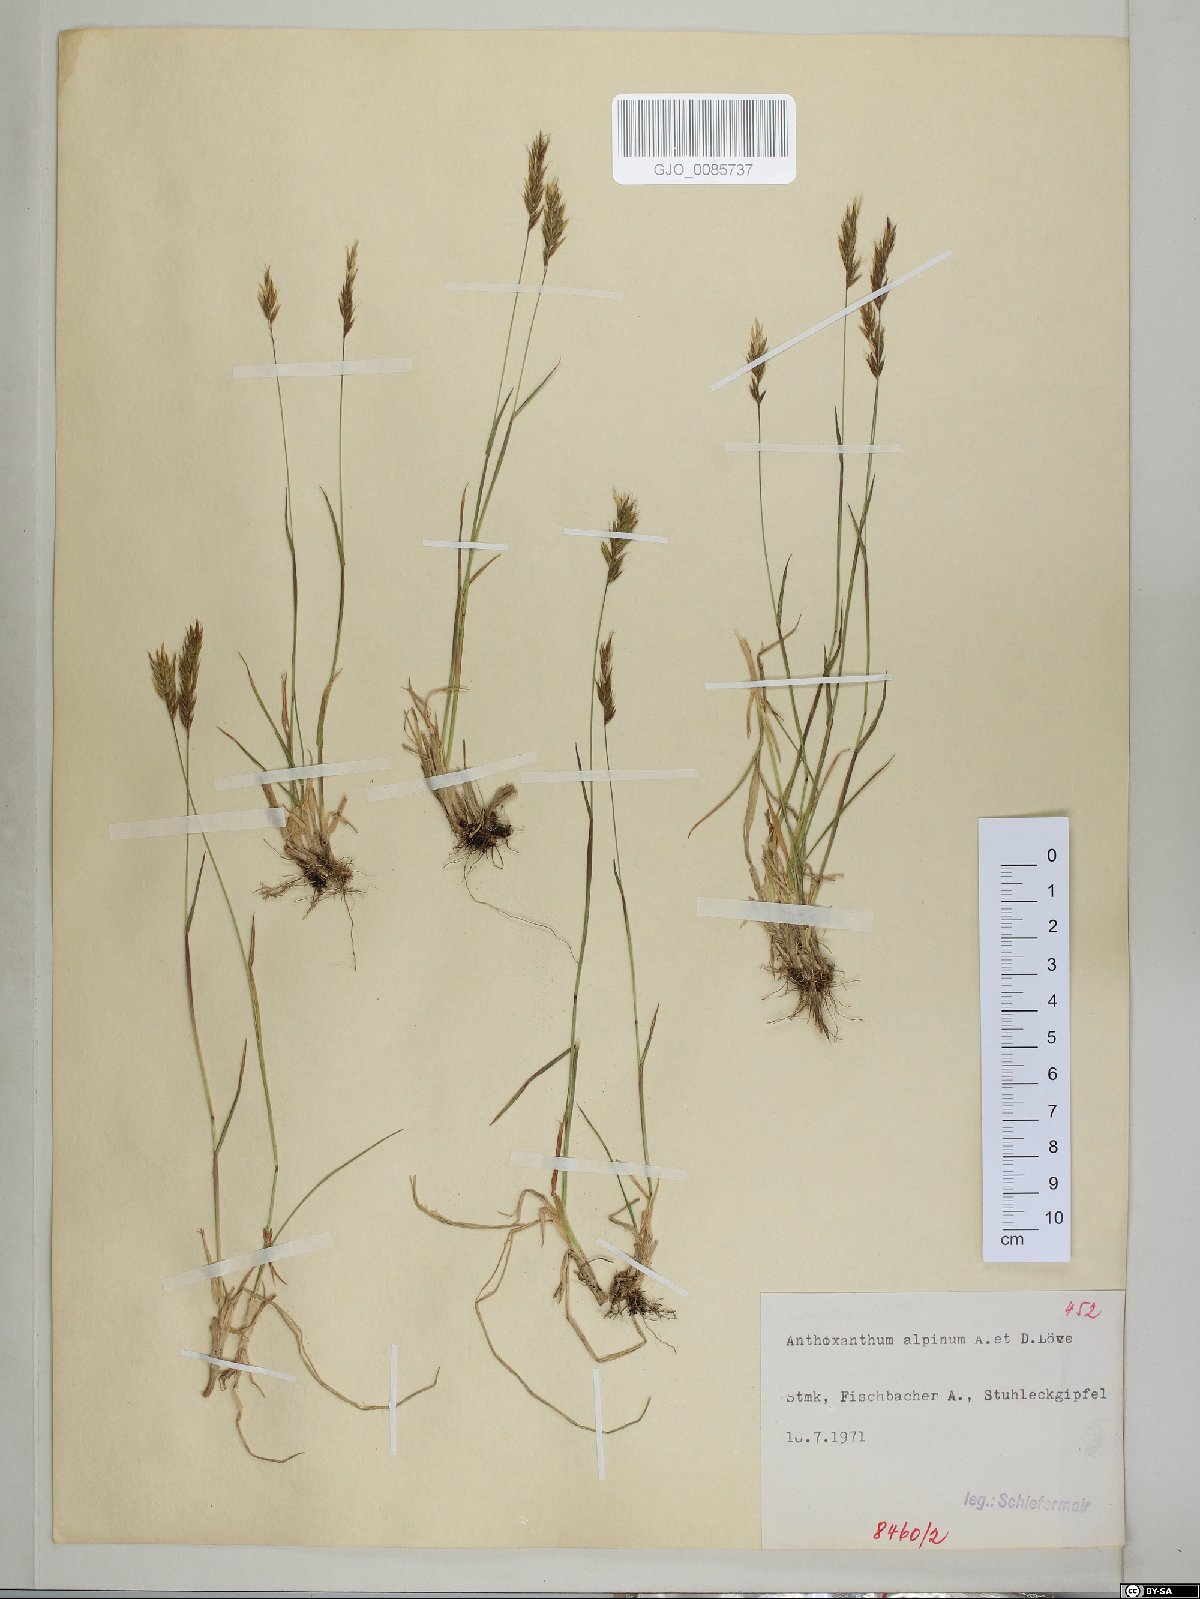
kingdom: Plantae
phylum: Tracheophyta
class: Liliopsida
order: Poales
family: Poaceae
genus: Anthoxanthum
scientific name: Anthoxanthum nipponicum
